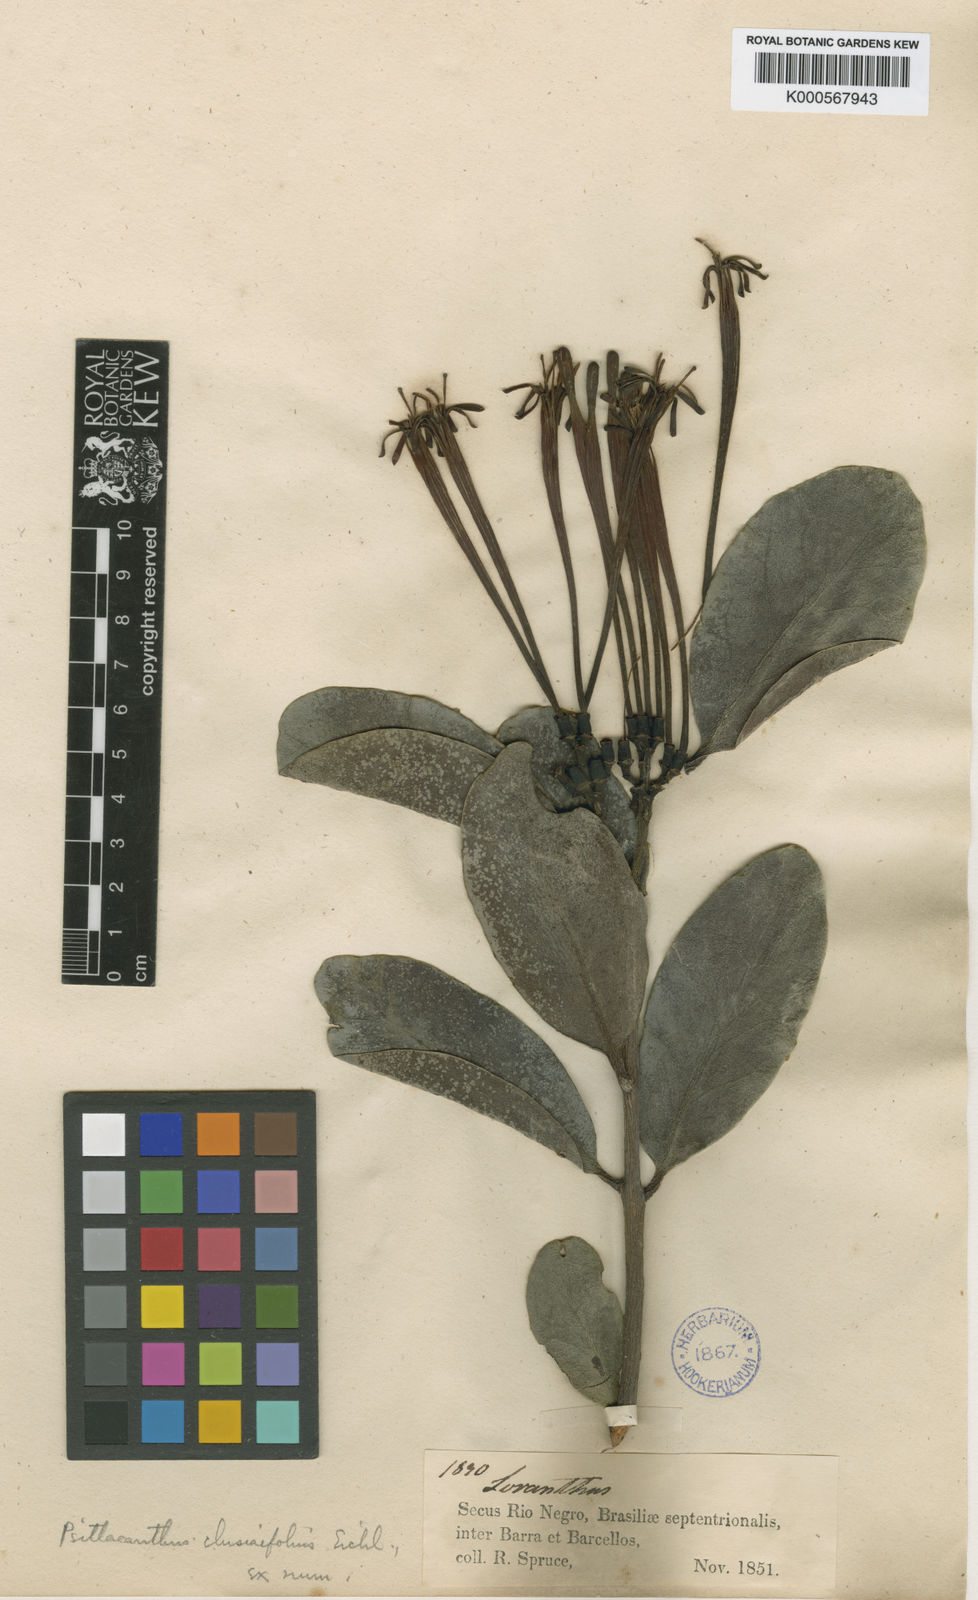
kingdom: Plantae
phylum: Tracheophyta
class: Magnoliopsida
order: Santalales
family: Loranthaceae
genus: Psittacanthus
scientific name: Psittacanthus clusiifolius
